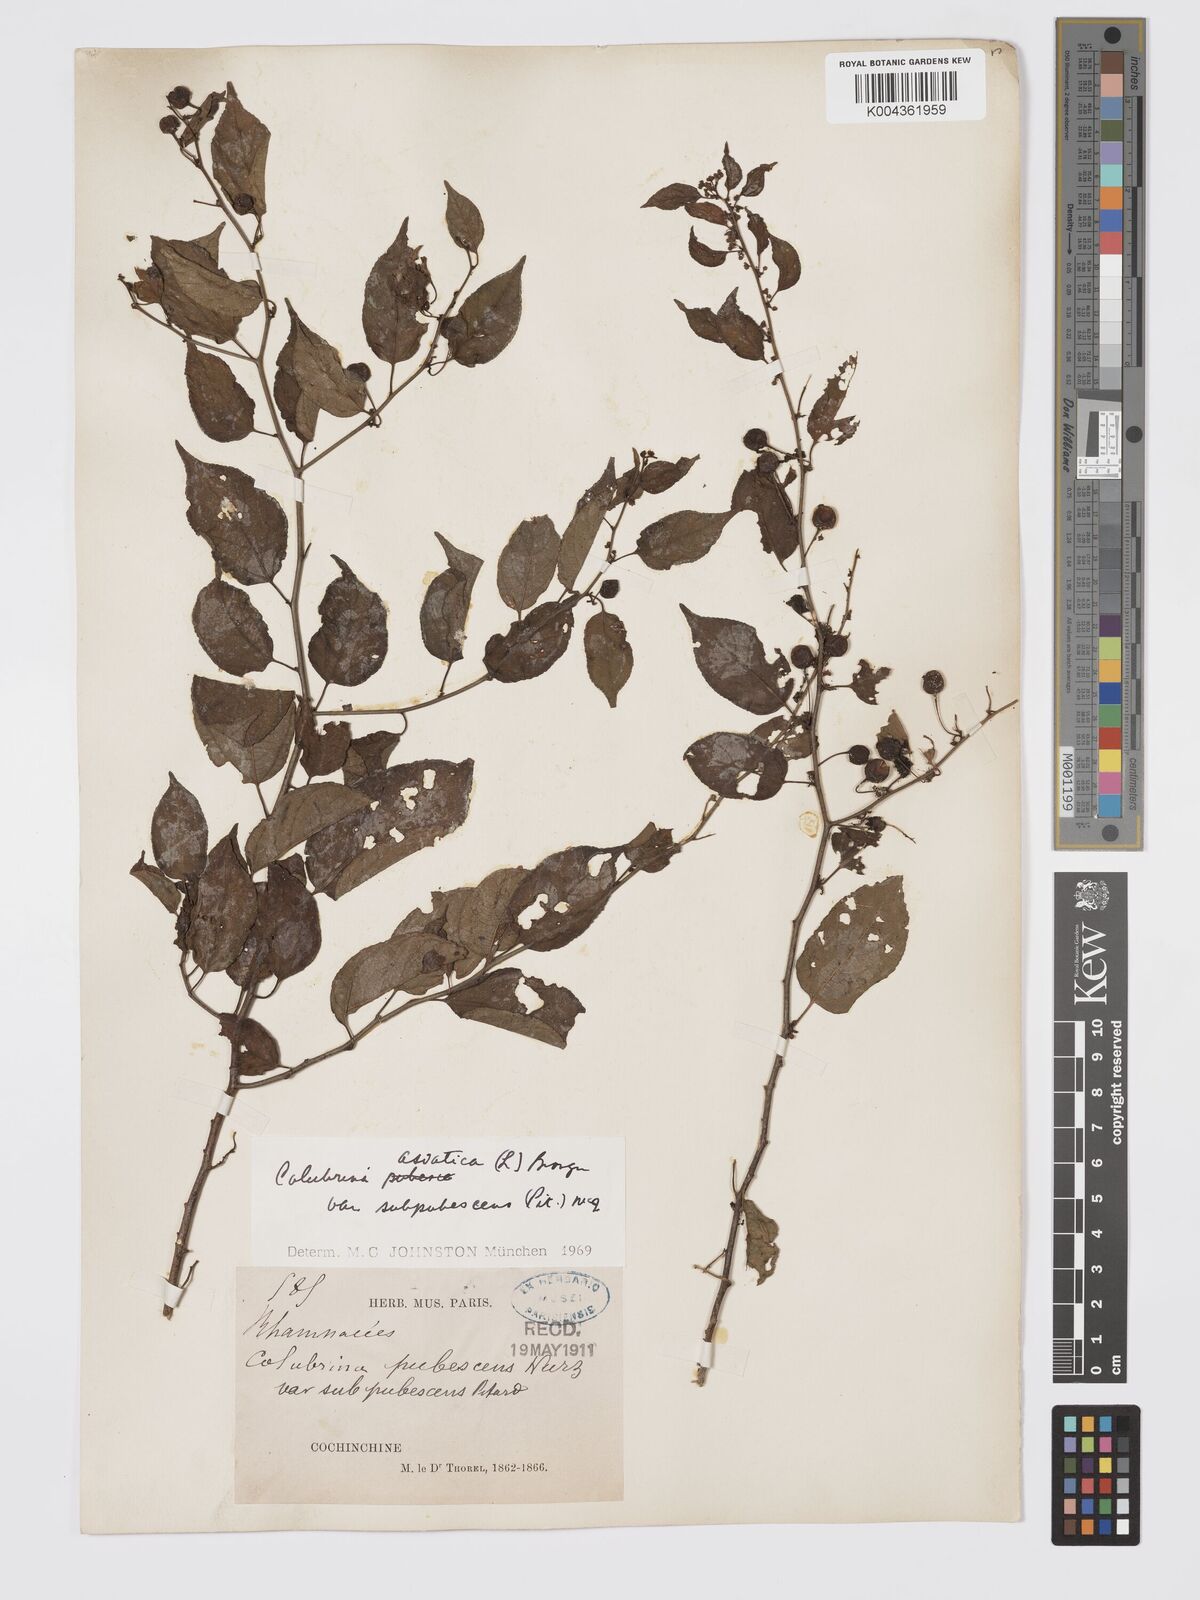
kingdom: Plantae
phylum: Tracheophyta
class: Magnoliopsida
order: Rosales
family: Rhamnaceae
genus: Colubrina
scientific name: Colubrina asiatica
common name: Asian nakedwood
